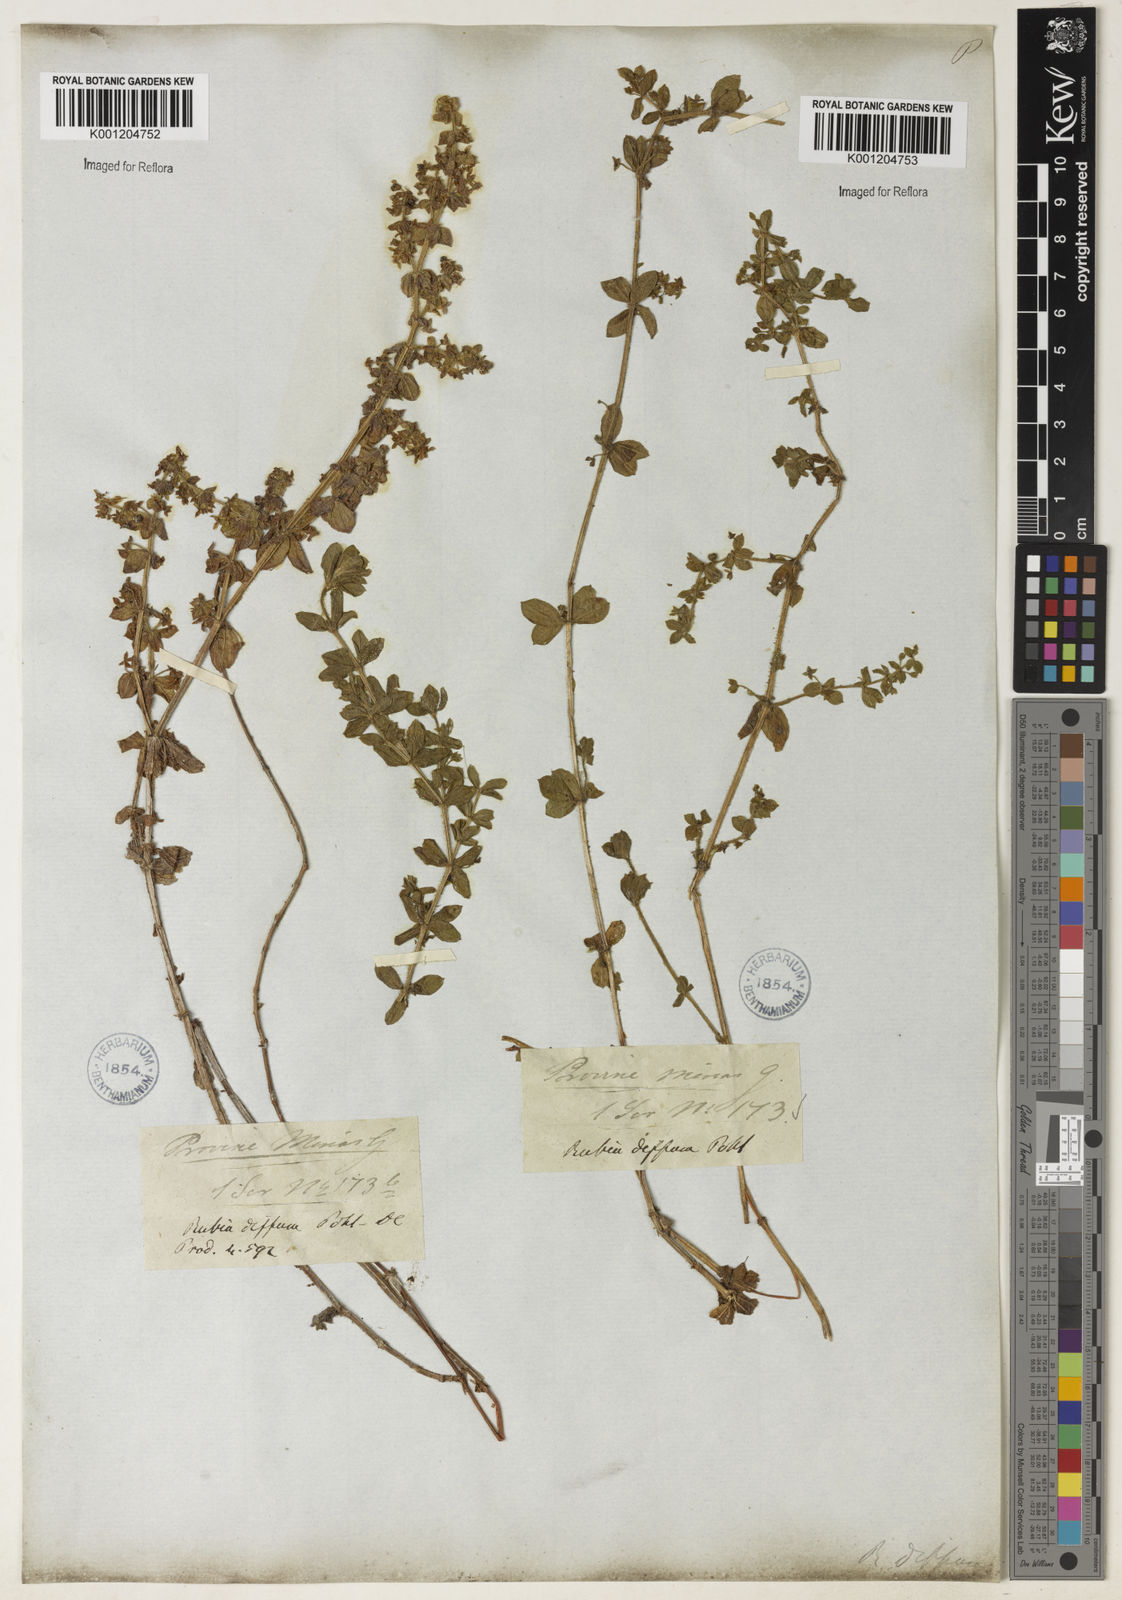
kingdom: Plantae
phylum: Tracheophyta
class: Magnoliopsida
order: Gentianales
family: Rubiaceae
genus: Galium
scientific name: Galium noxium
